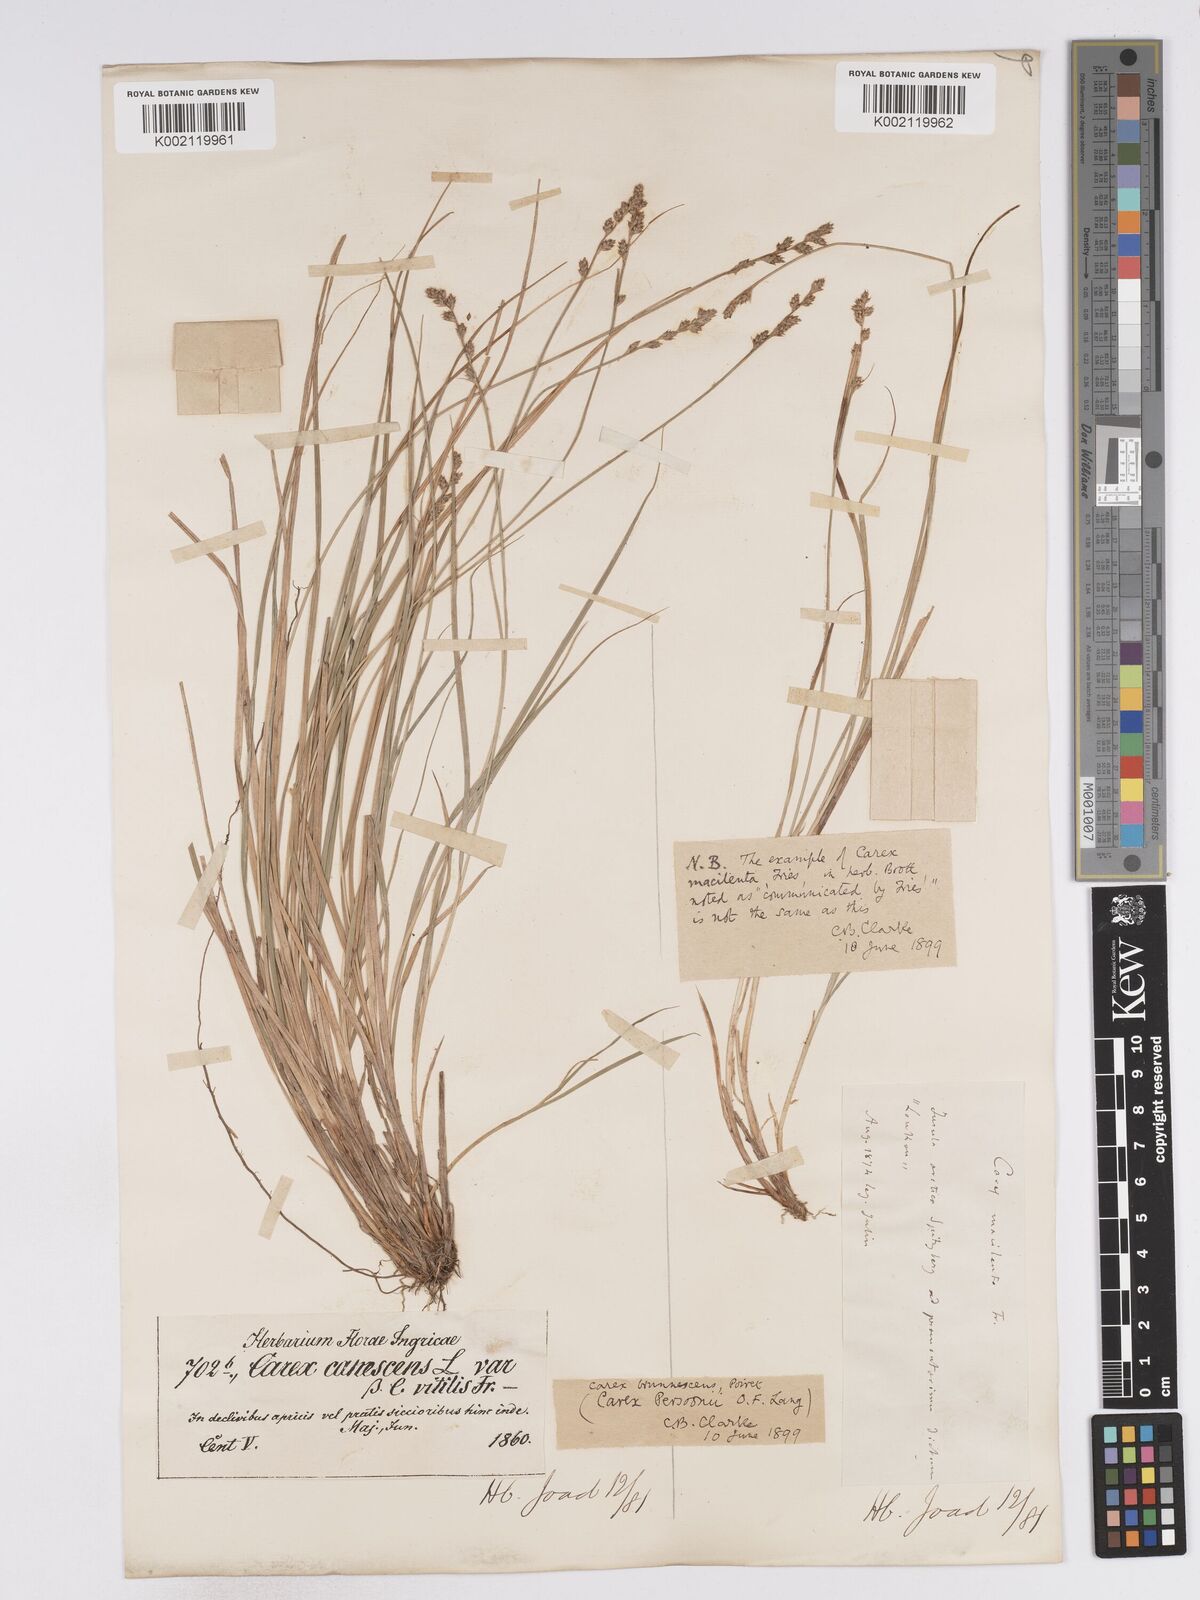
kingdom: Plantae
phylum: Tracheophyta
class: Liliopsida
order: Poales
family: Cyperaceae
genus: Carex
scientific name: Carex canescens
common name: White sedge
